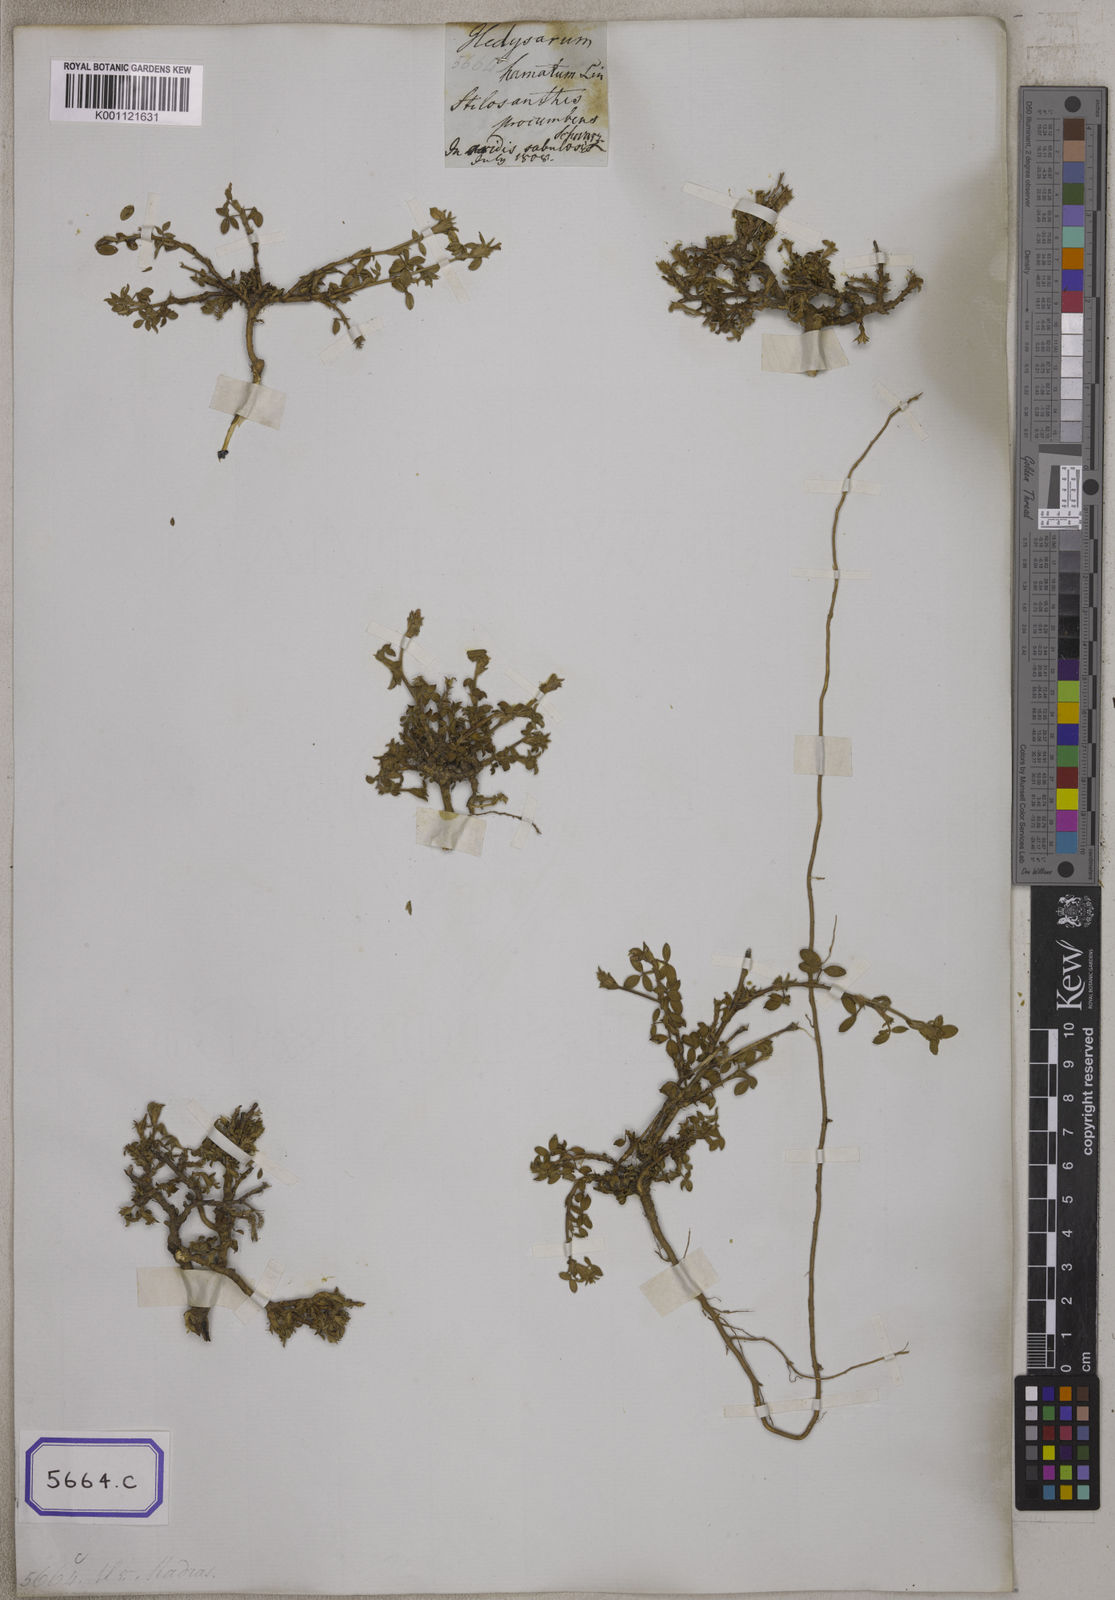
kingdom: Plantae
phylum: Tracheophyta
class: Magnoliopsida
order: Fabales
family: Fabaceae
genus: Stylosanthes
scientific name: Stylosanthes fruticosa
